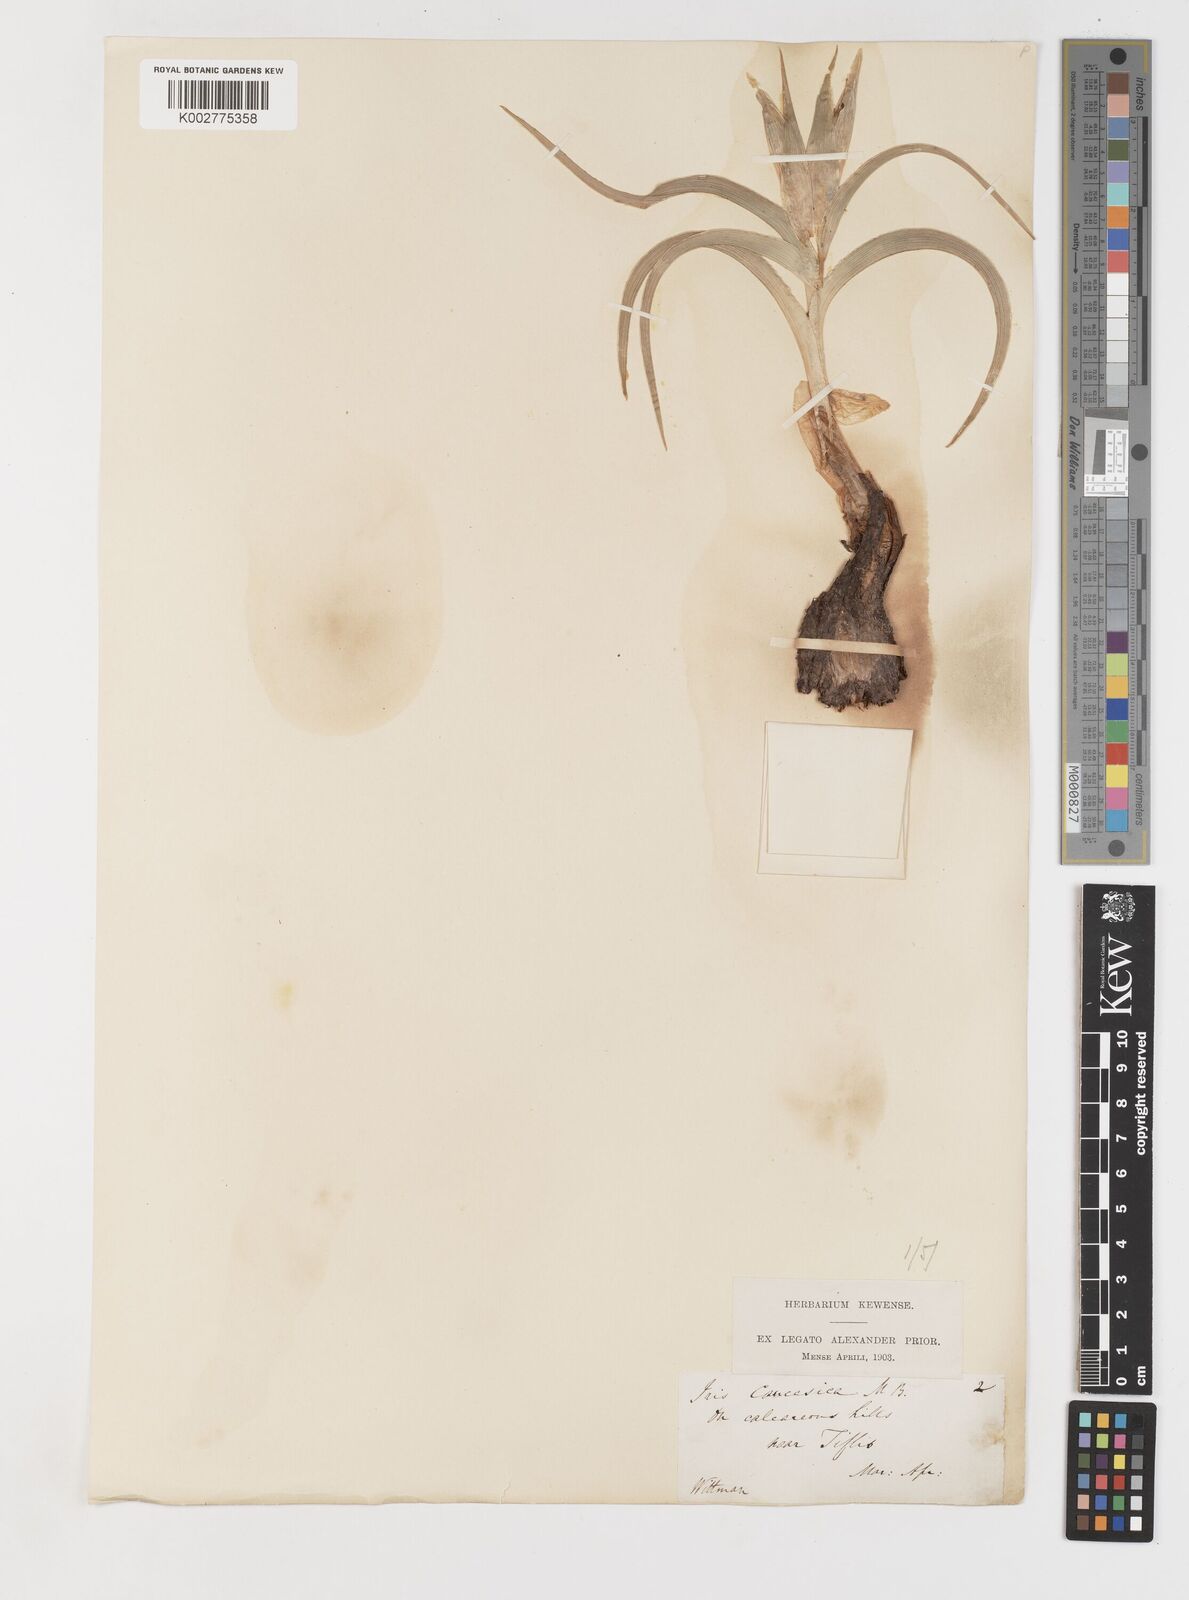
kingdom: Plantae
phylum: Tracheophyta
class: Liliopsida
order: Asparagales
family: Iridaceae
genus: Iris
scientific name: Iris caucasica
